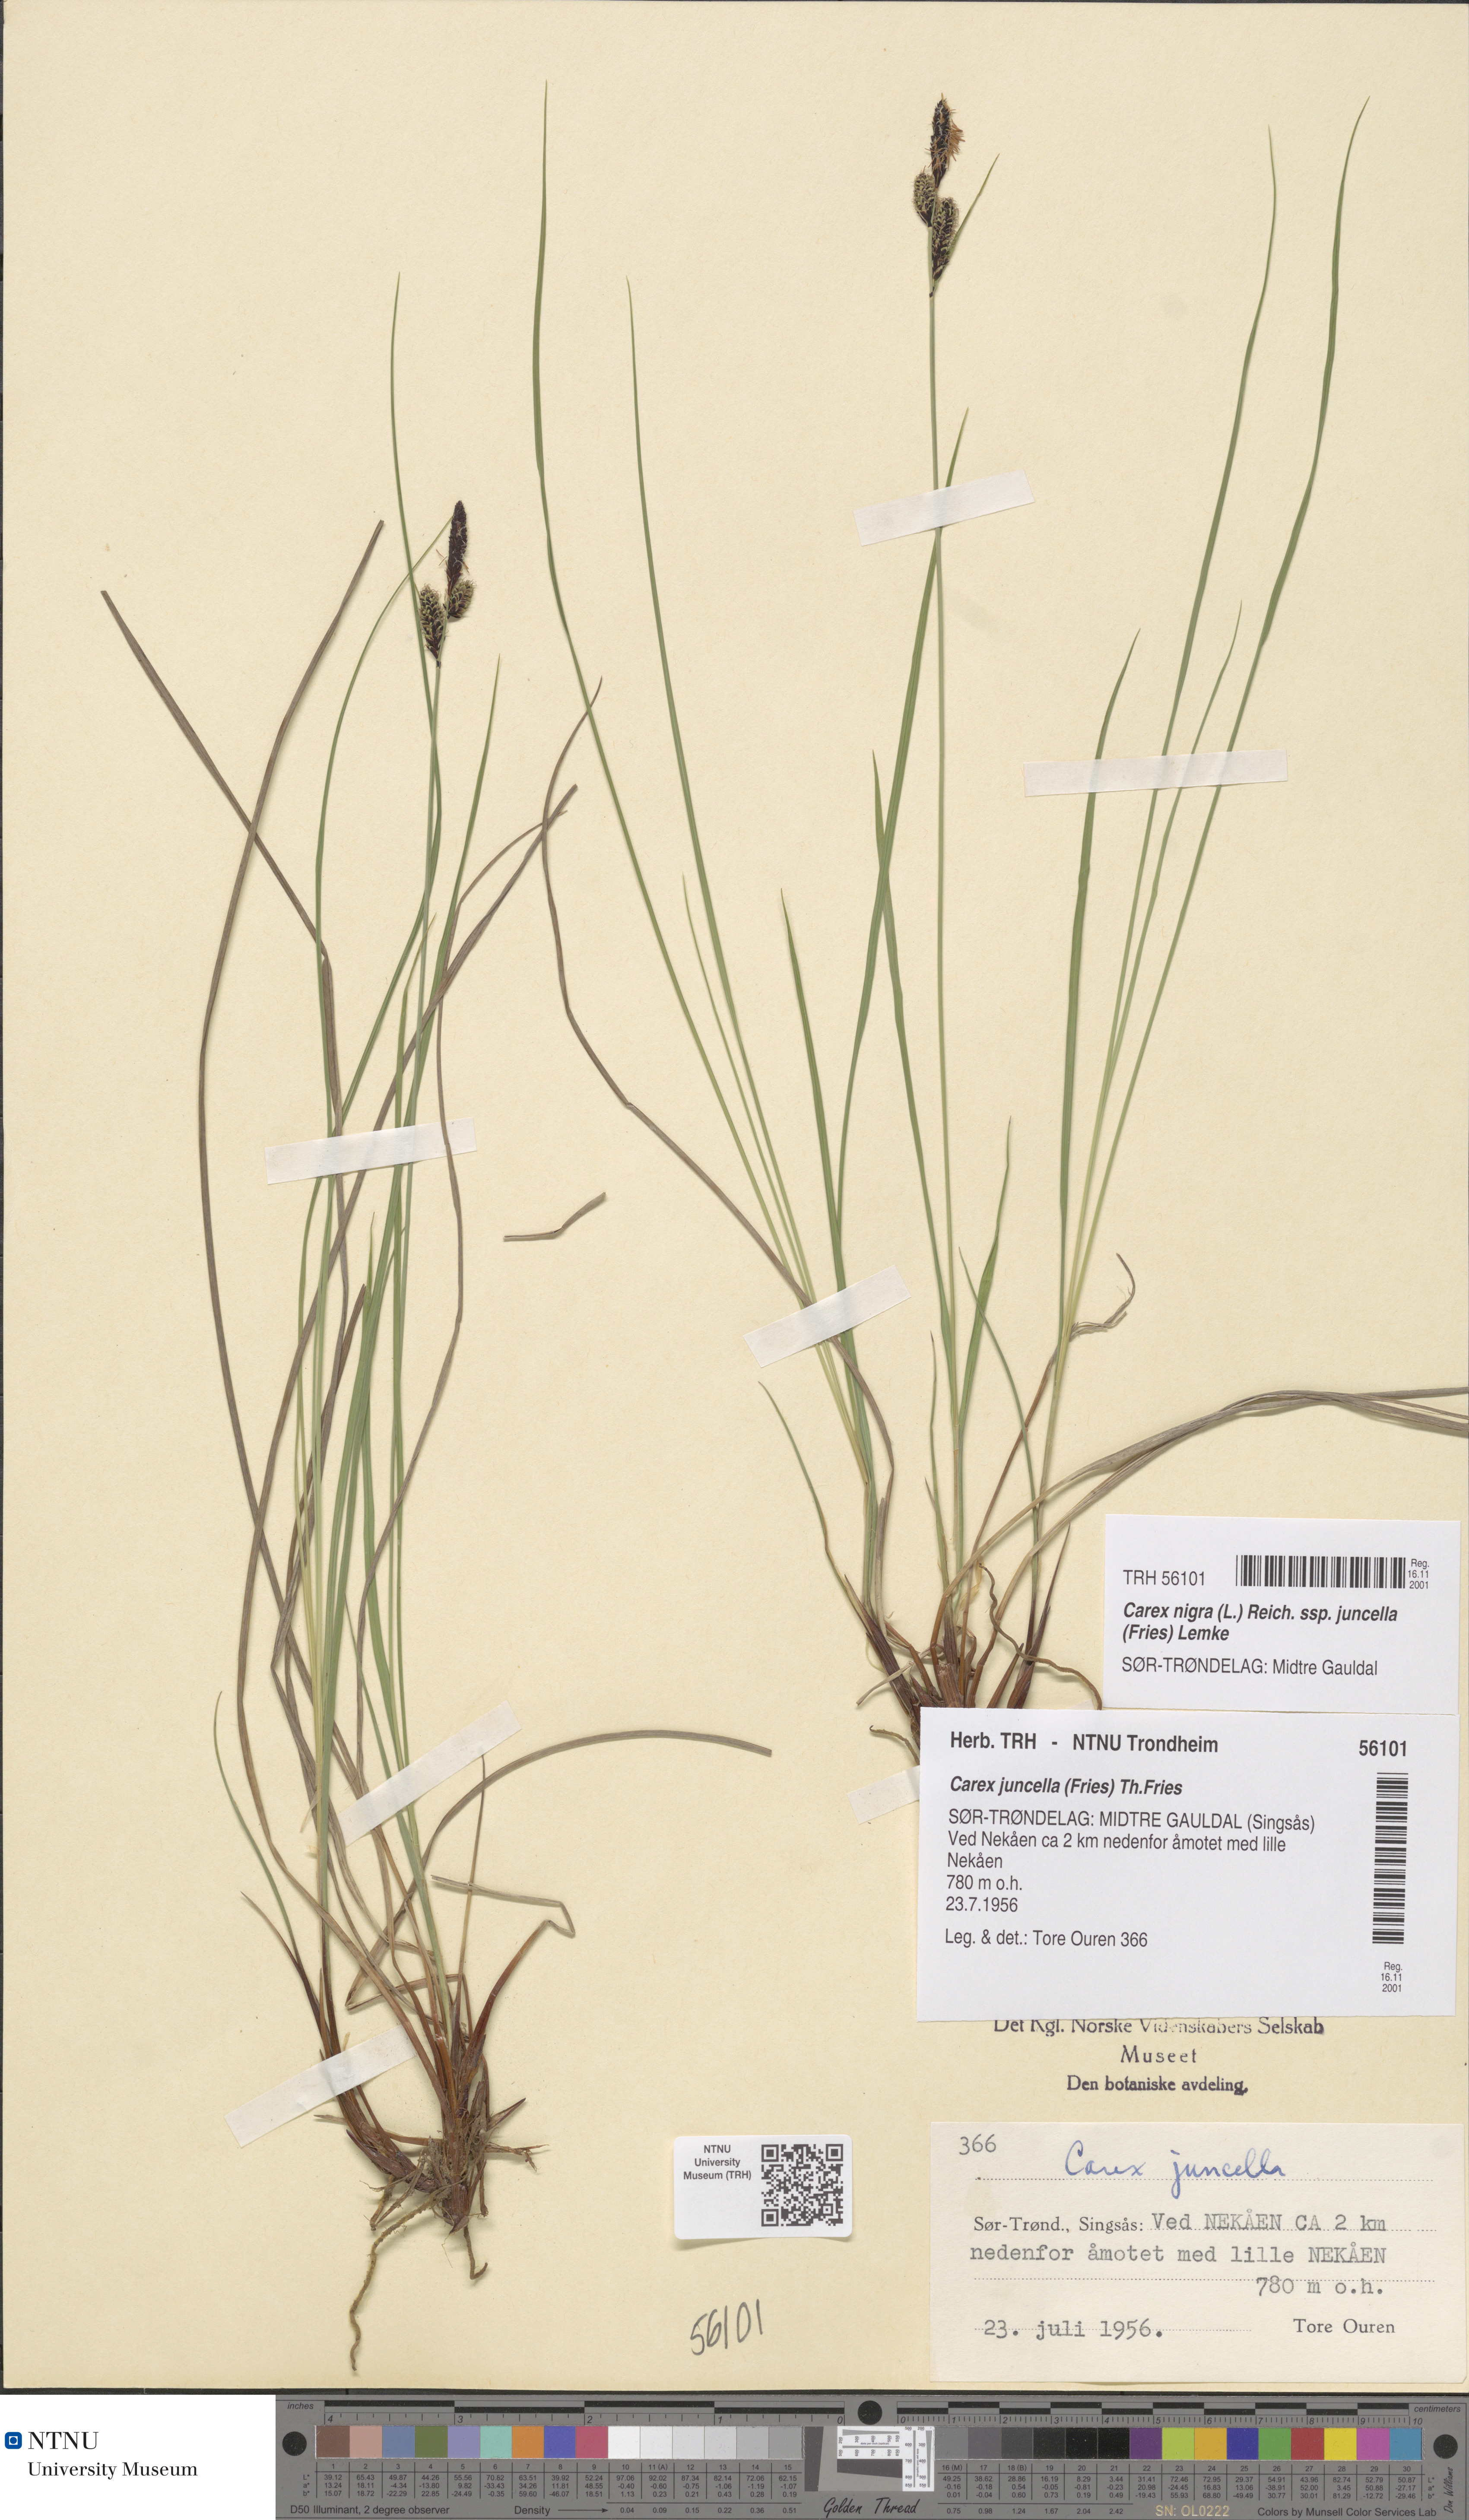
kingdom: Plantae
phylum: Tracheophyta
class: Liliopsida
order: Poales
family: Cyperaceae
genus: Carex
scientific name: Carex nigra
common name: Common sedge
